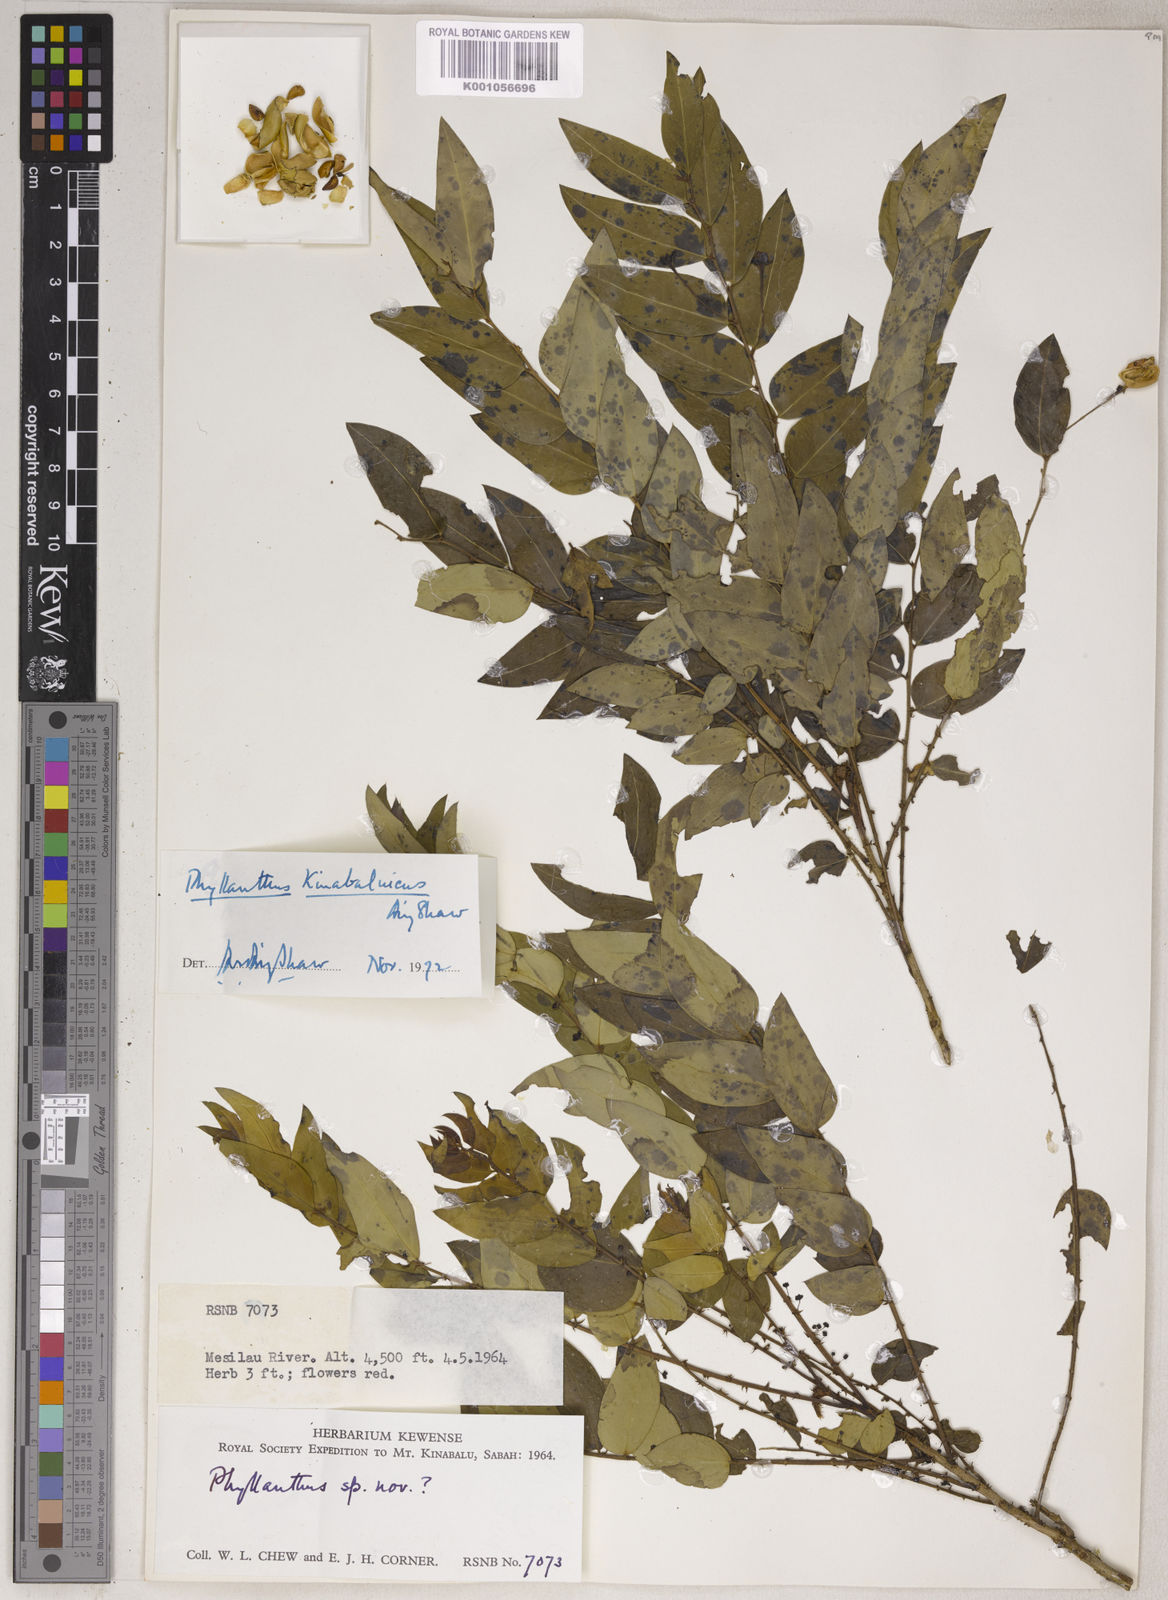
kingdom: Plantae
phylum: Tracheophyta
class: Magnoliopsida
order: Malpighiales
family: Phyllanthaceae
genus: Phyllanthus
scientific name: Phyllanthus kinabaluicus
